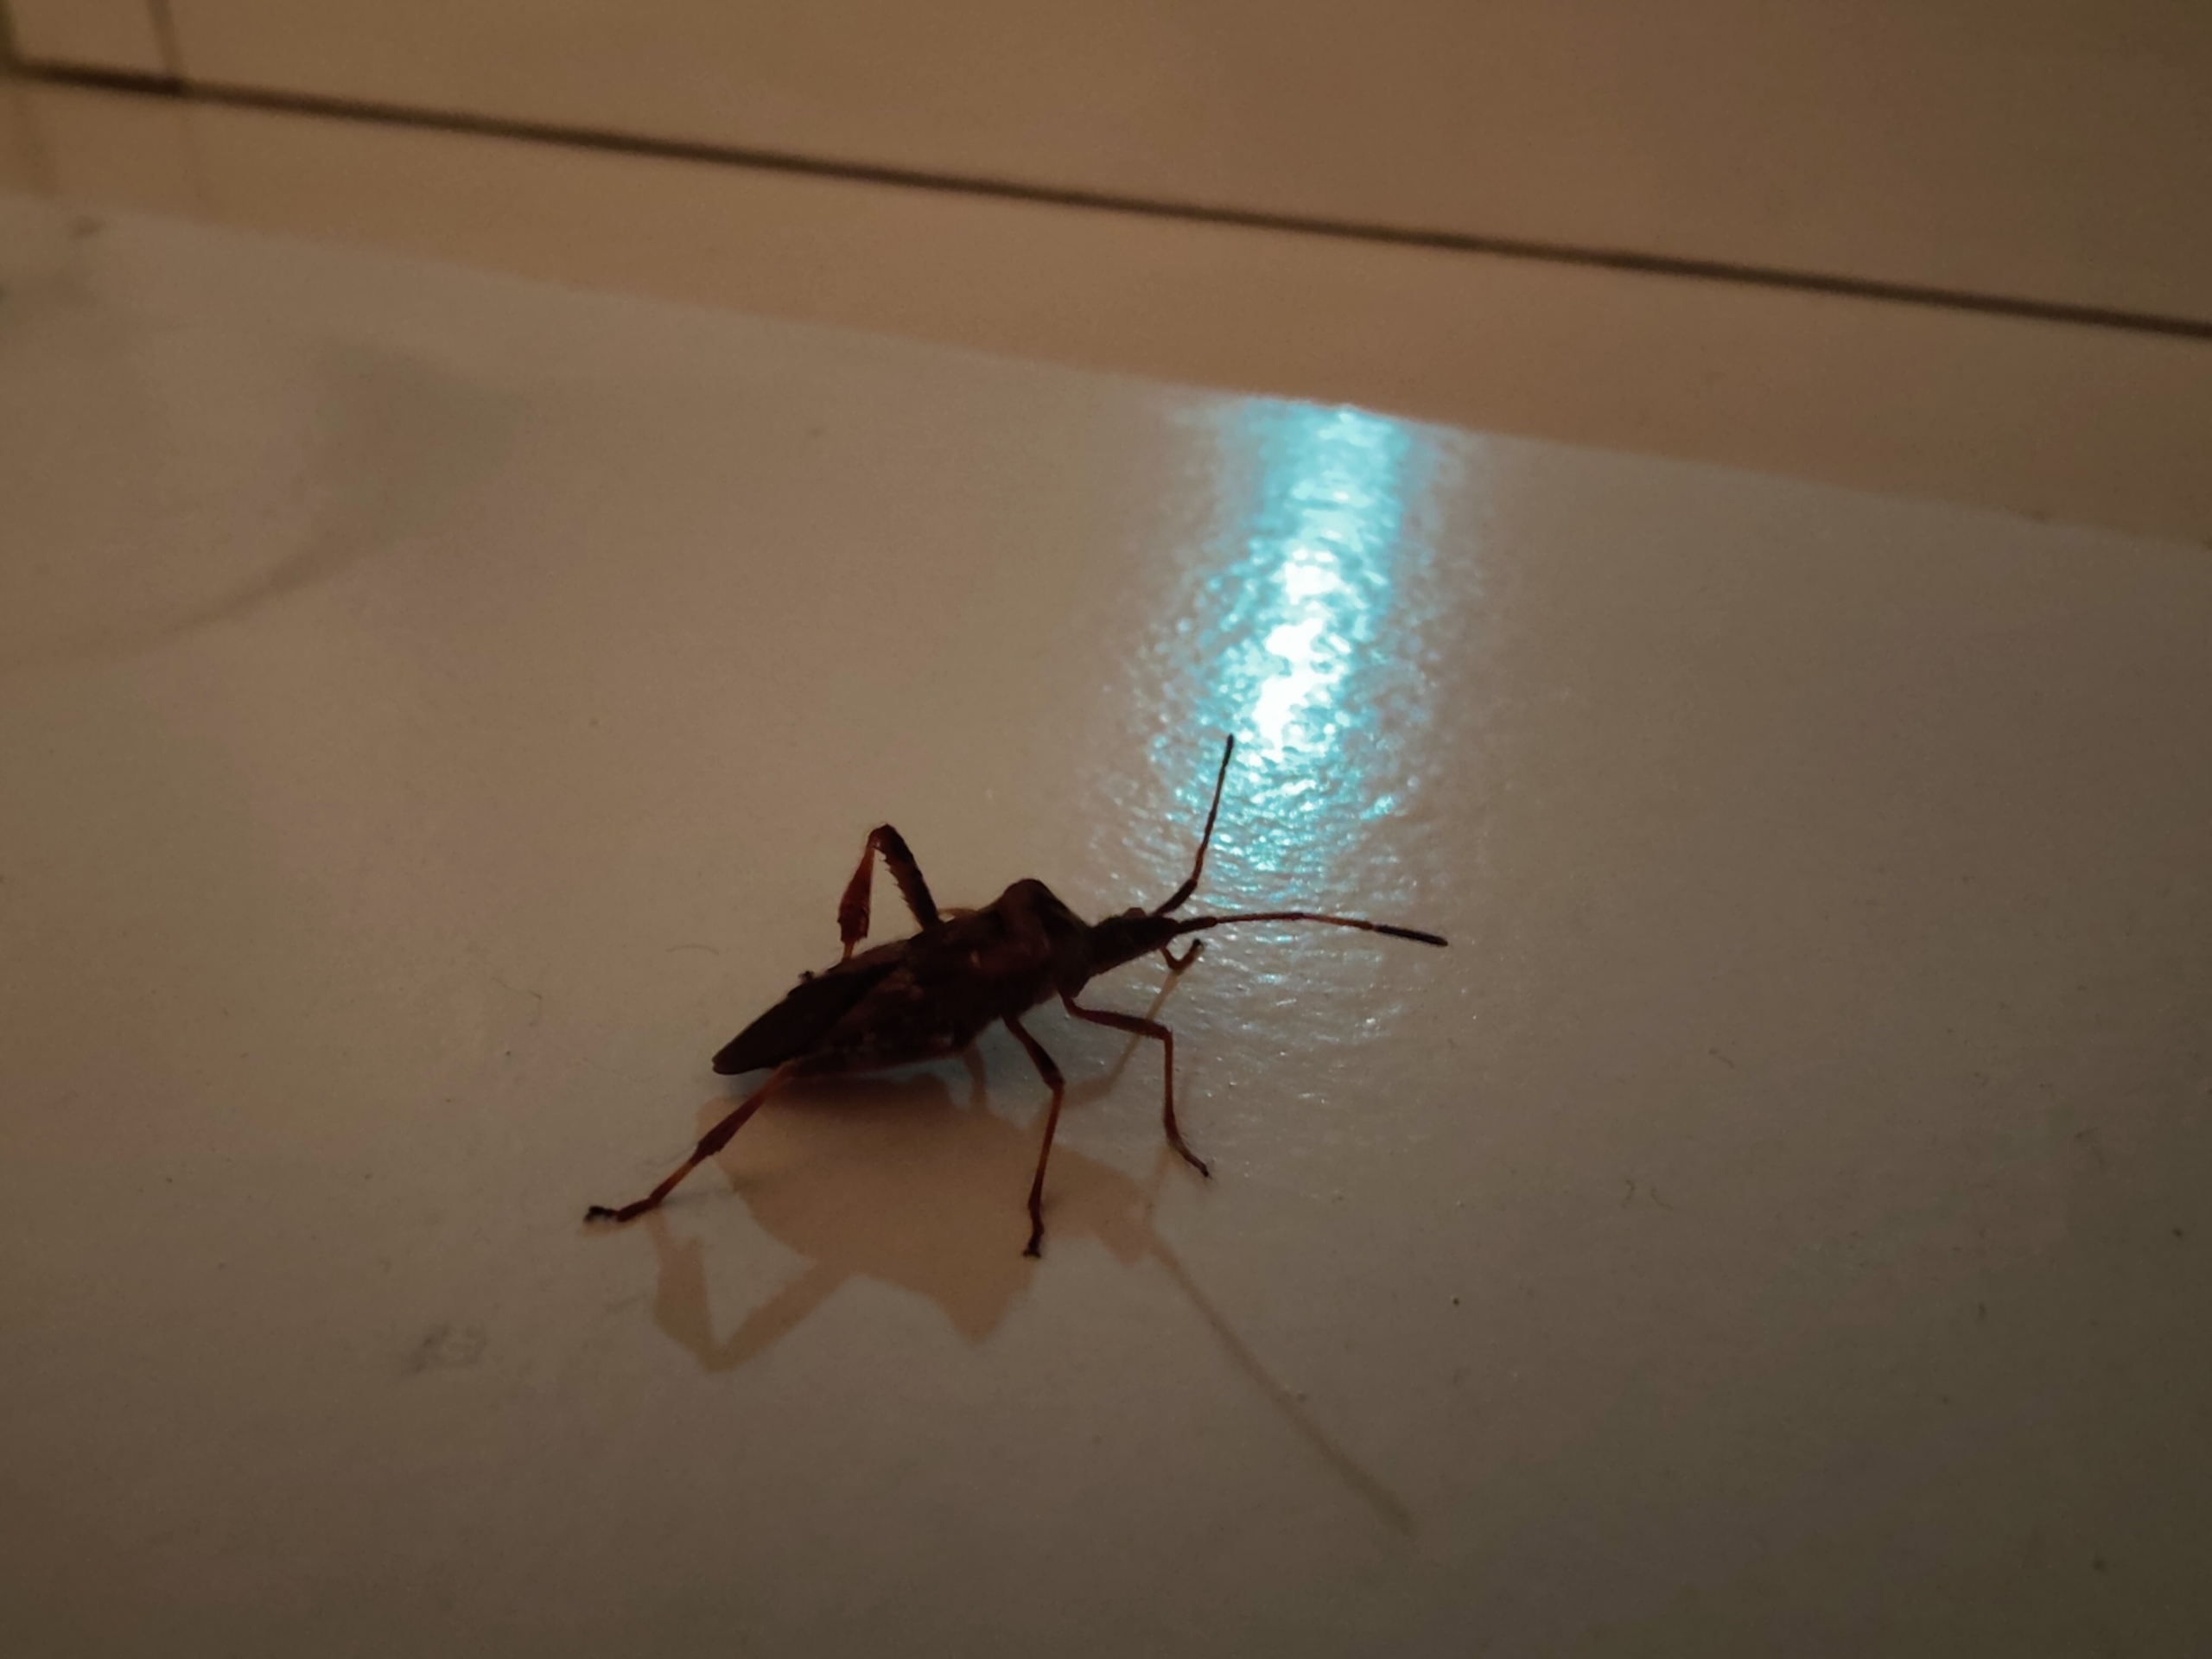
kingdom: Animalia
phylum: Arthropoda
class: Insecta
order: Hemiptera
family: Coreidae
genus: Leptoglossus
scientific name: Leptoglossus occidentalis
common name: Amerikansk fyrretæge
